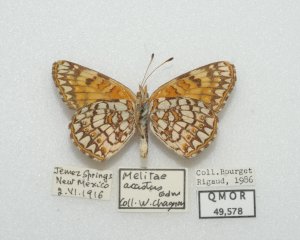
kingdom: Animalia
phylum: Arthropoda
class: Insecta
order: Lepidoptera
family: Nymphalidae
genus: Chlosyne
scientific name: Chlosyne acastus
